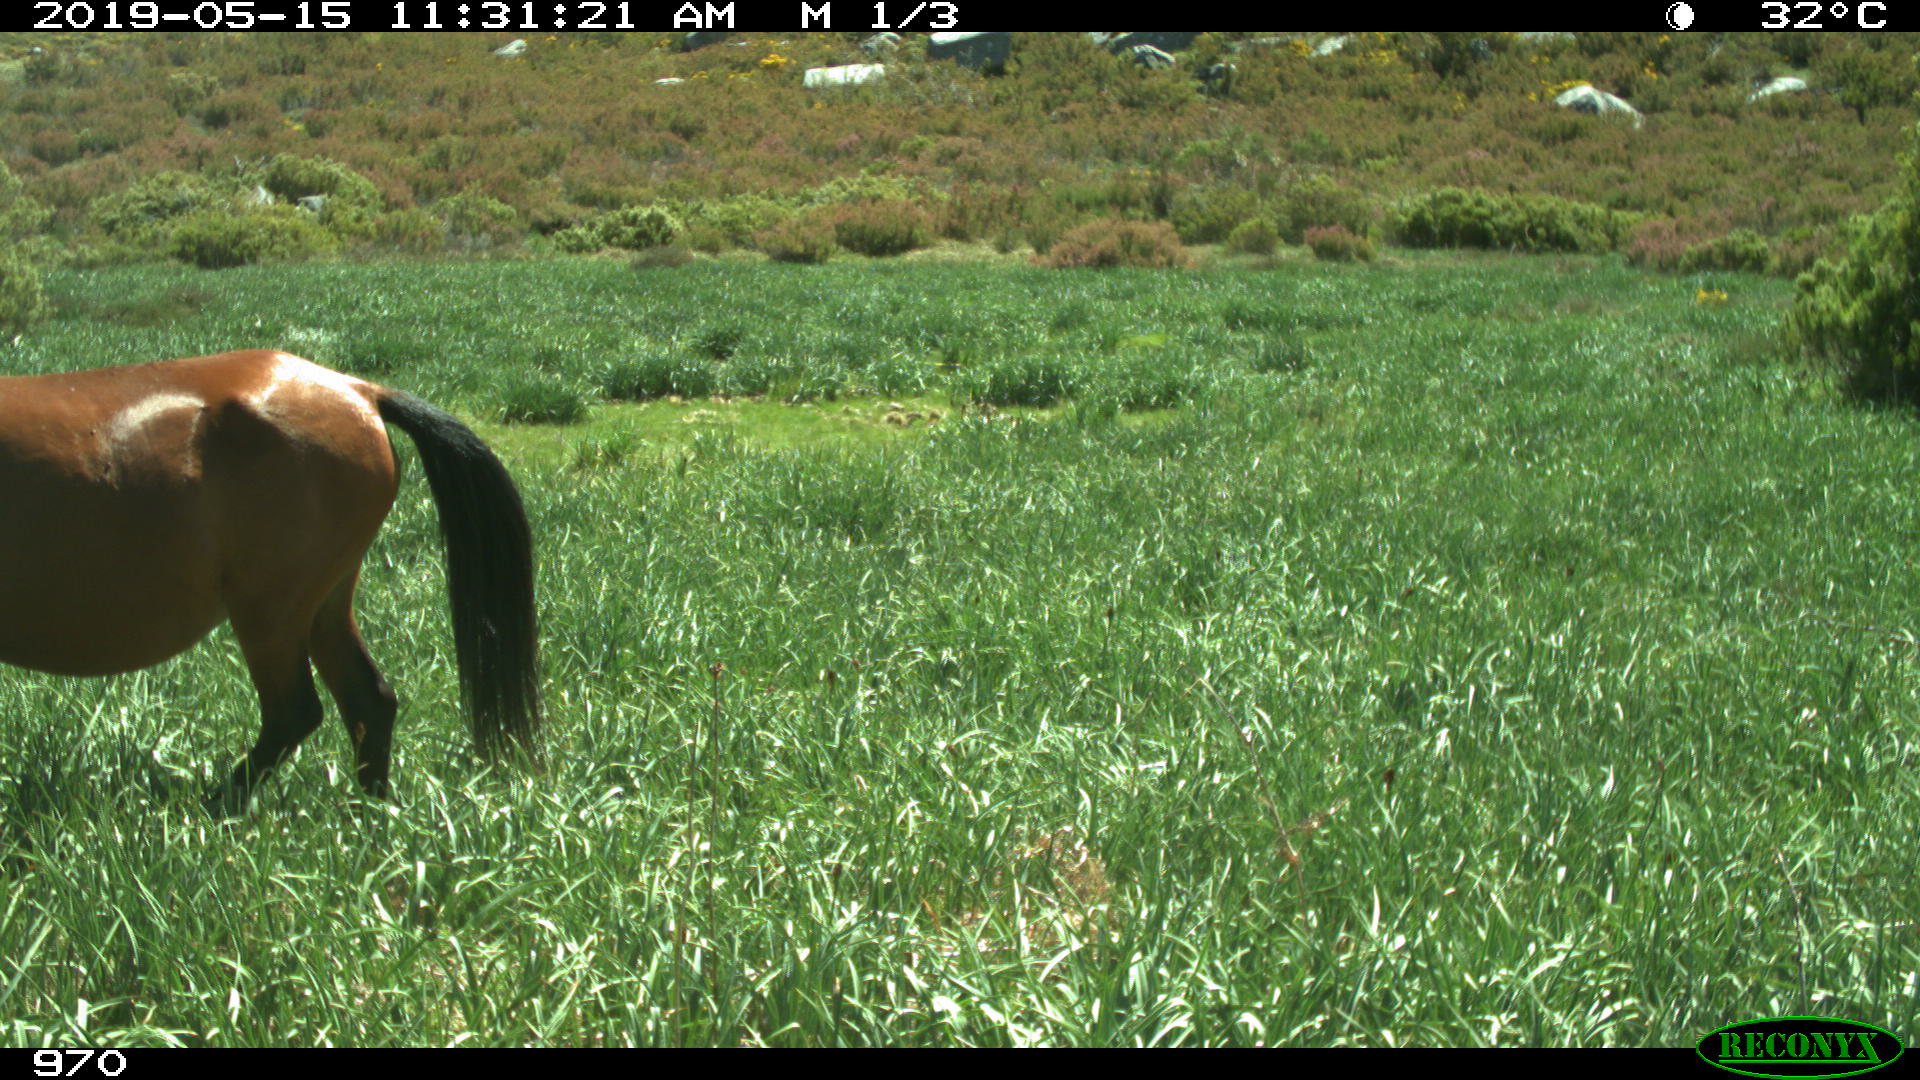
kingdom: Animalia
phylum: Chordata
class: Mammalia
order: Perissodactyla
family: Equidae
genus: Equus
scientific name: Equus caballus
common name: Horse
